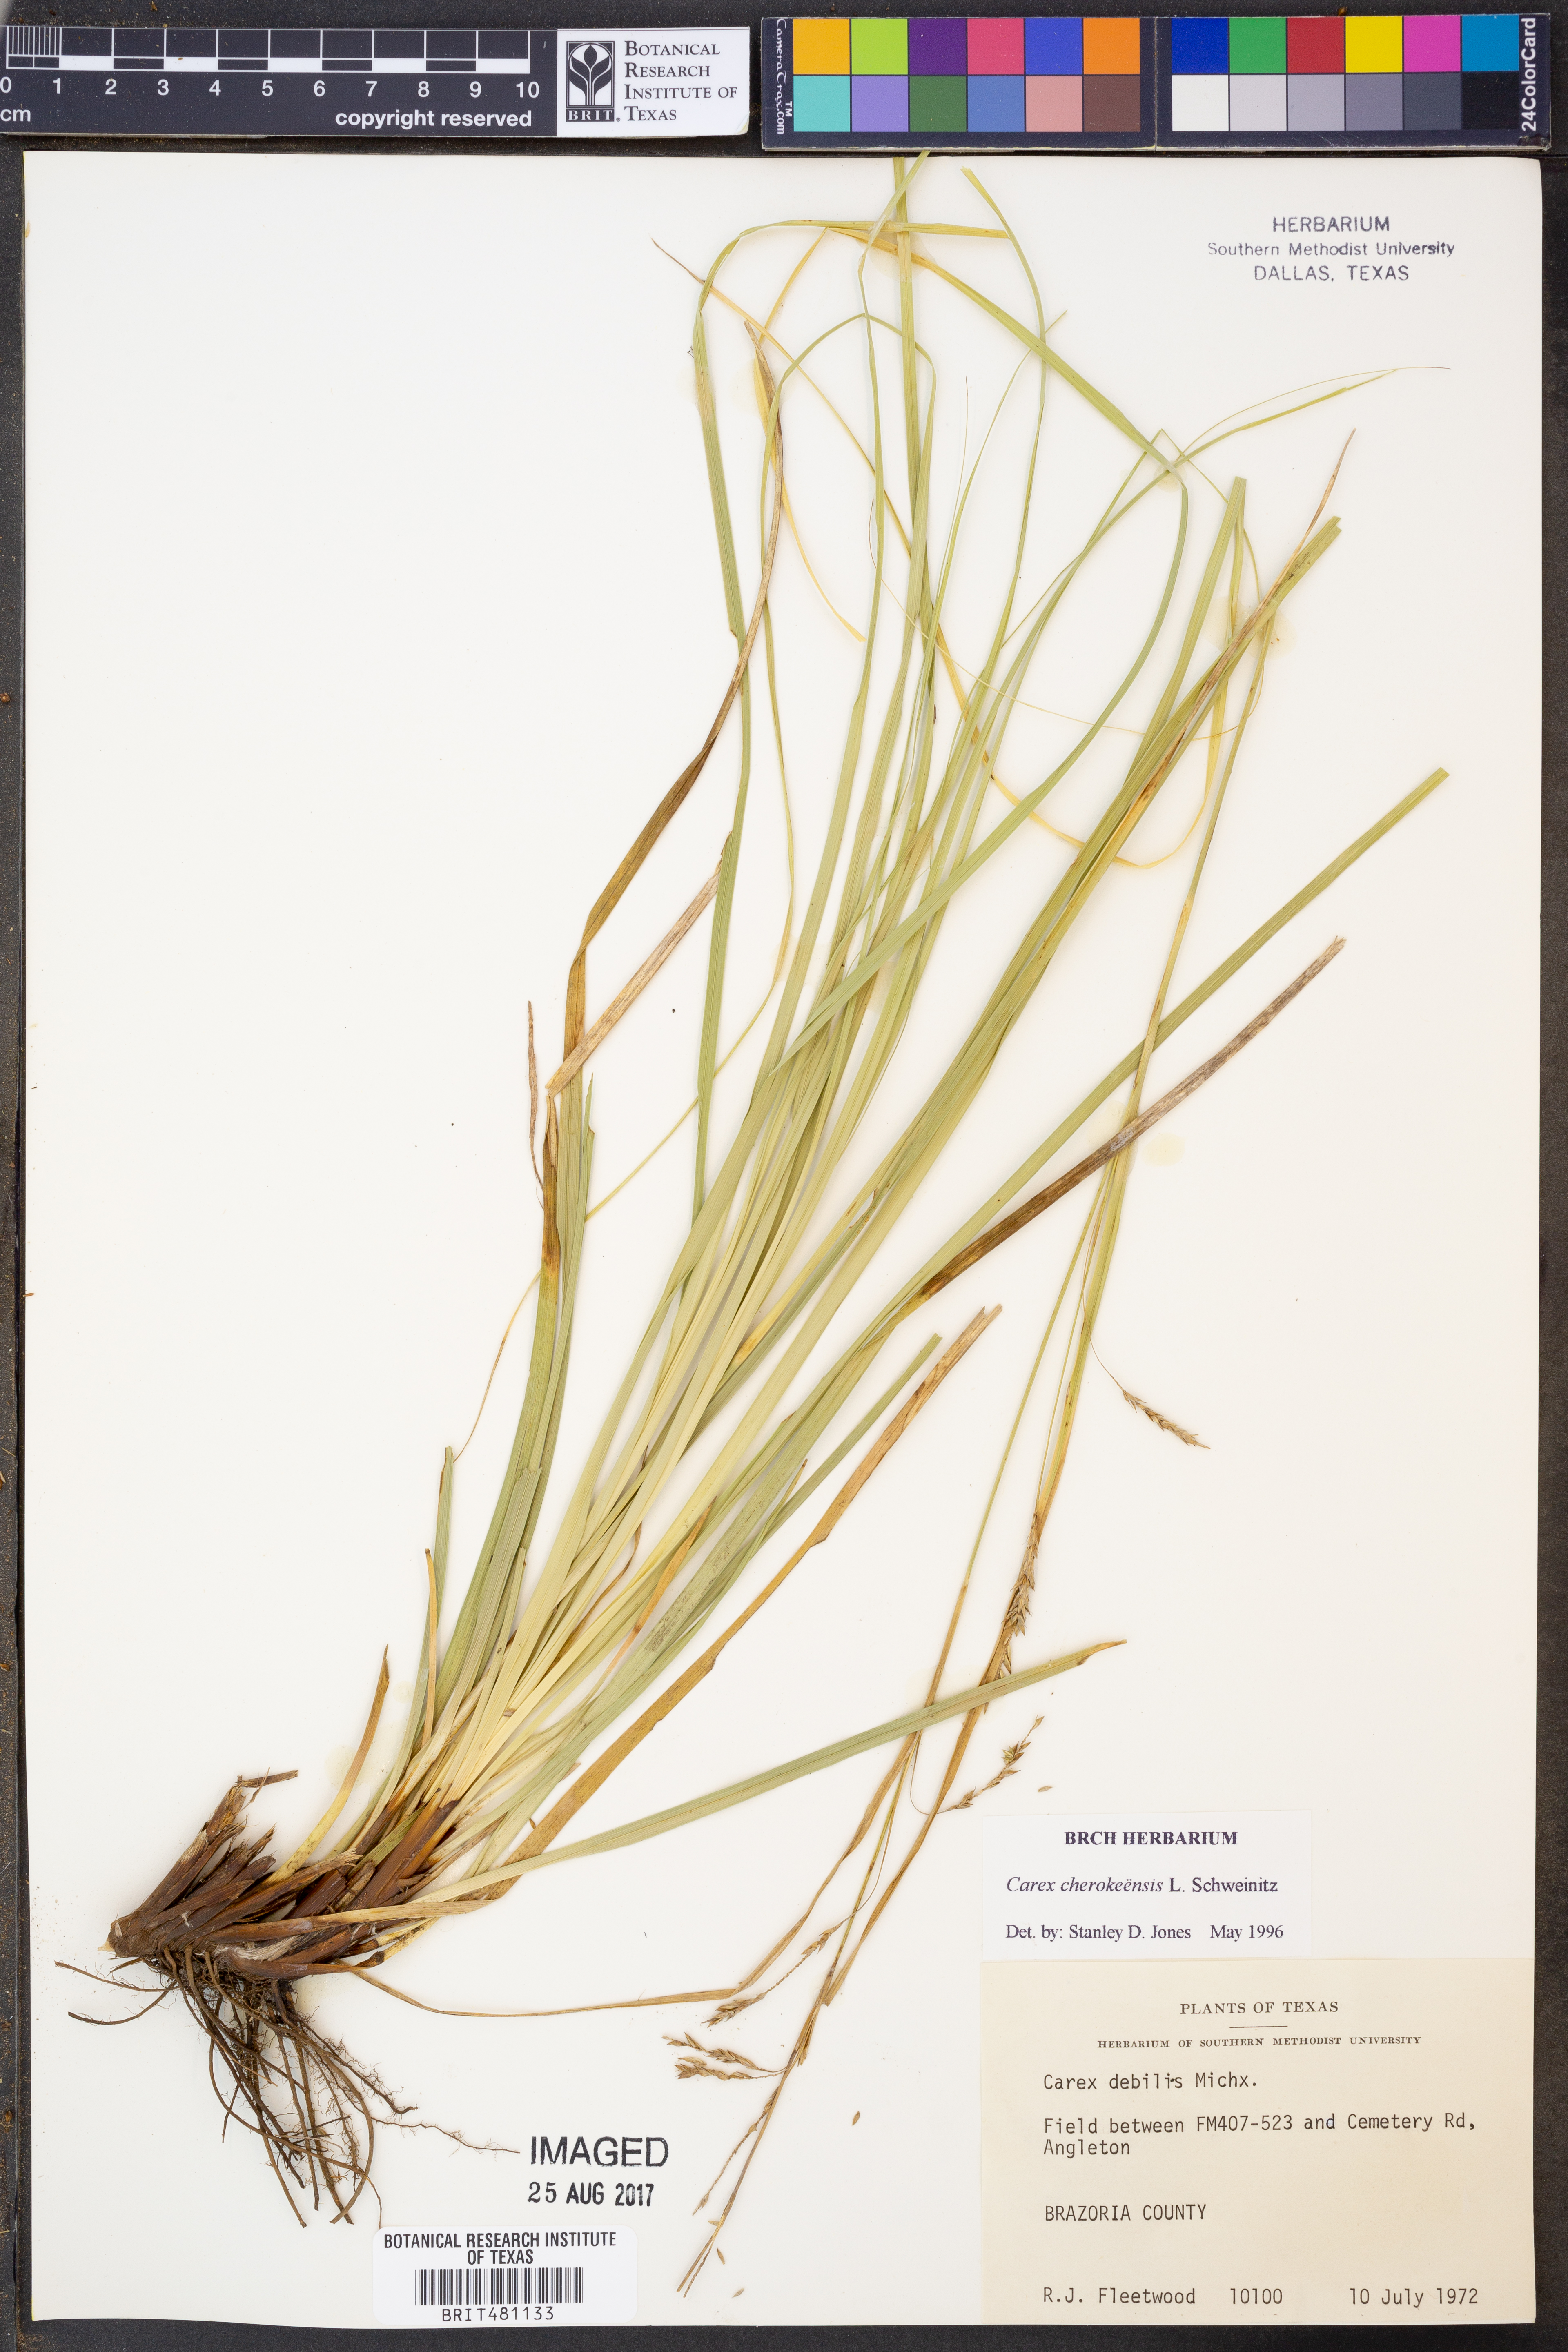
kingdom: Plantae
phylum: Tracheophyta
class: Liliopsida
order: Poales
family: Cyperaceae
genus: Carex
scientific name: Carex cherokeensis
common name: Cherokee sedge
